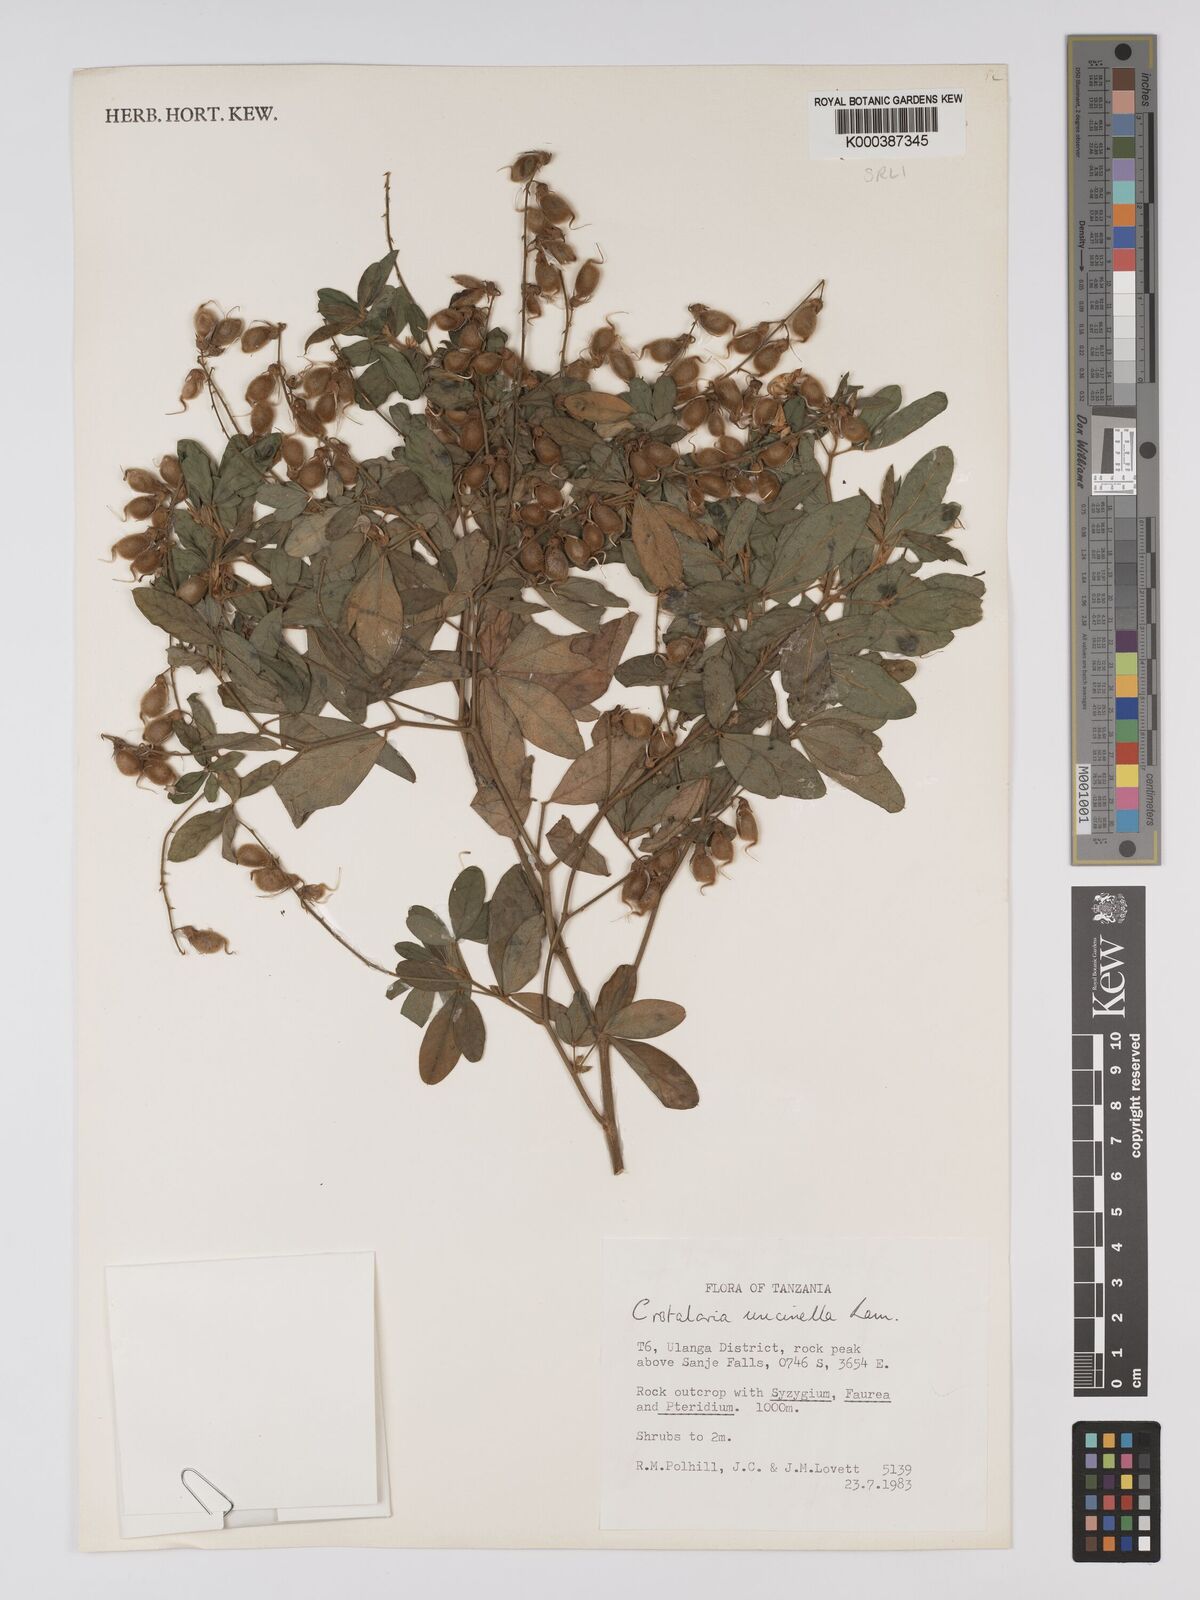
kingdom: Plantae
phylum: Tracheophyta
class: Magnoliopsida
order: Fabales
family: Fabaceae
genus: Crotalaria
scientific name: Crotalaria uncinella
